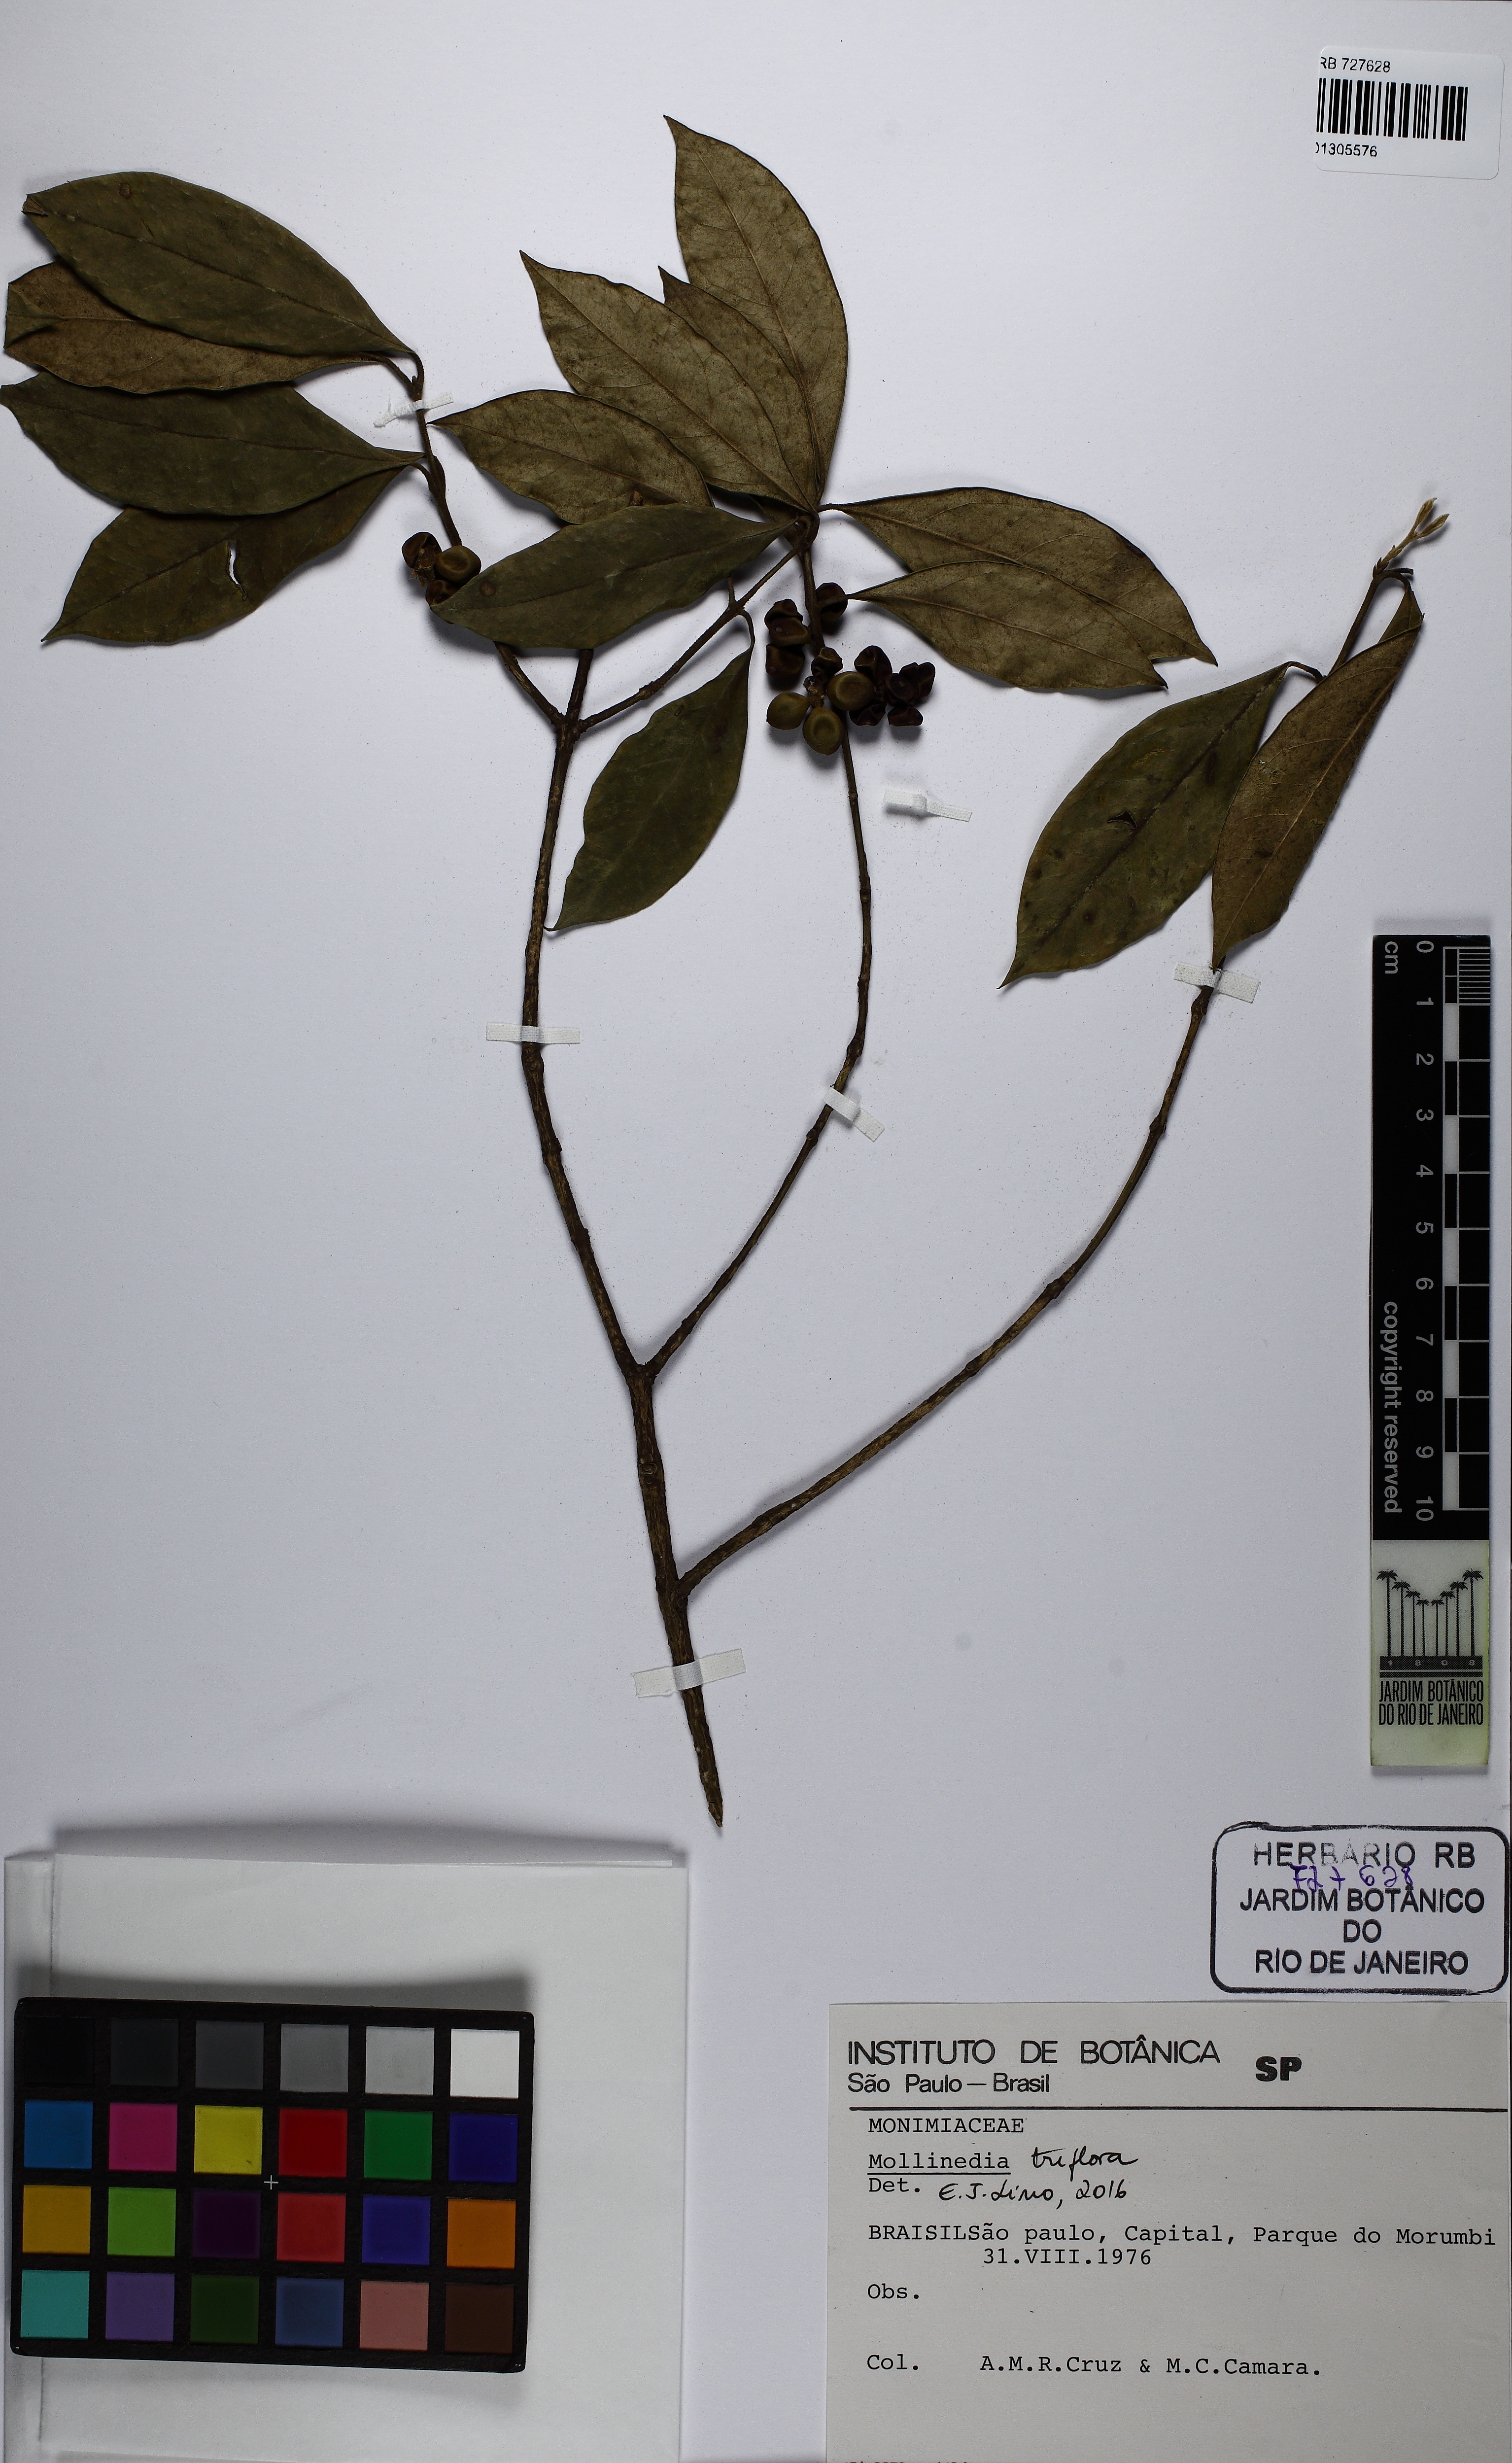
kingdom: Plantae
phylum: Tracheophyta
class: Magnoliopsida
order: Laurales
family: Monimiaceae
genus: Mollinedia
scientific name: Mollinedia triflora
